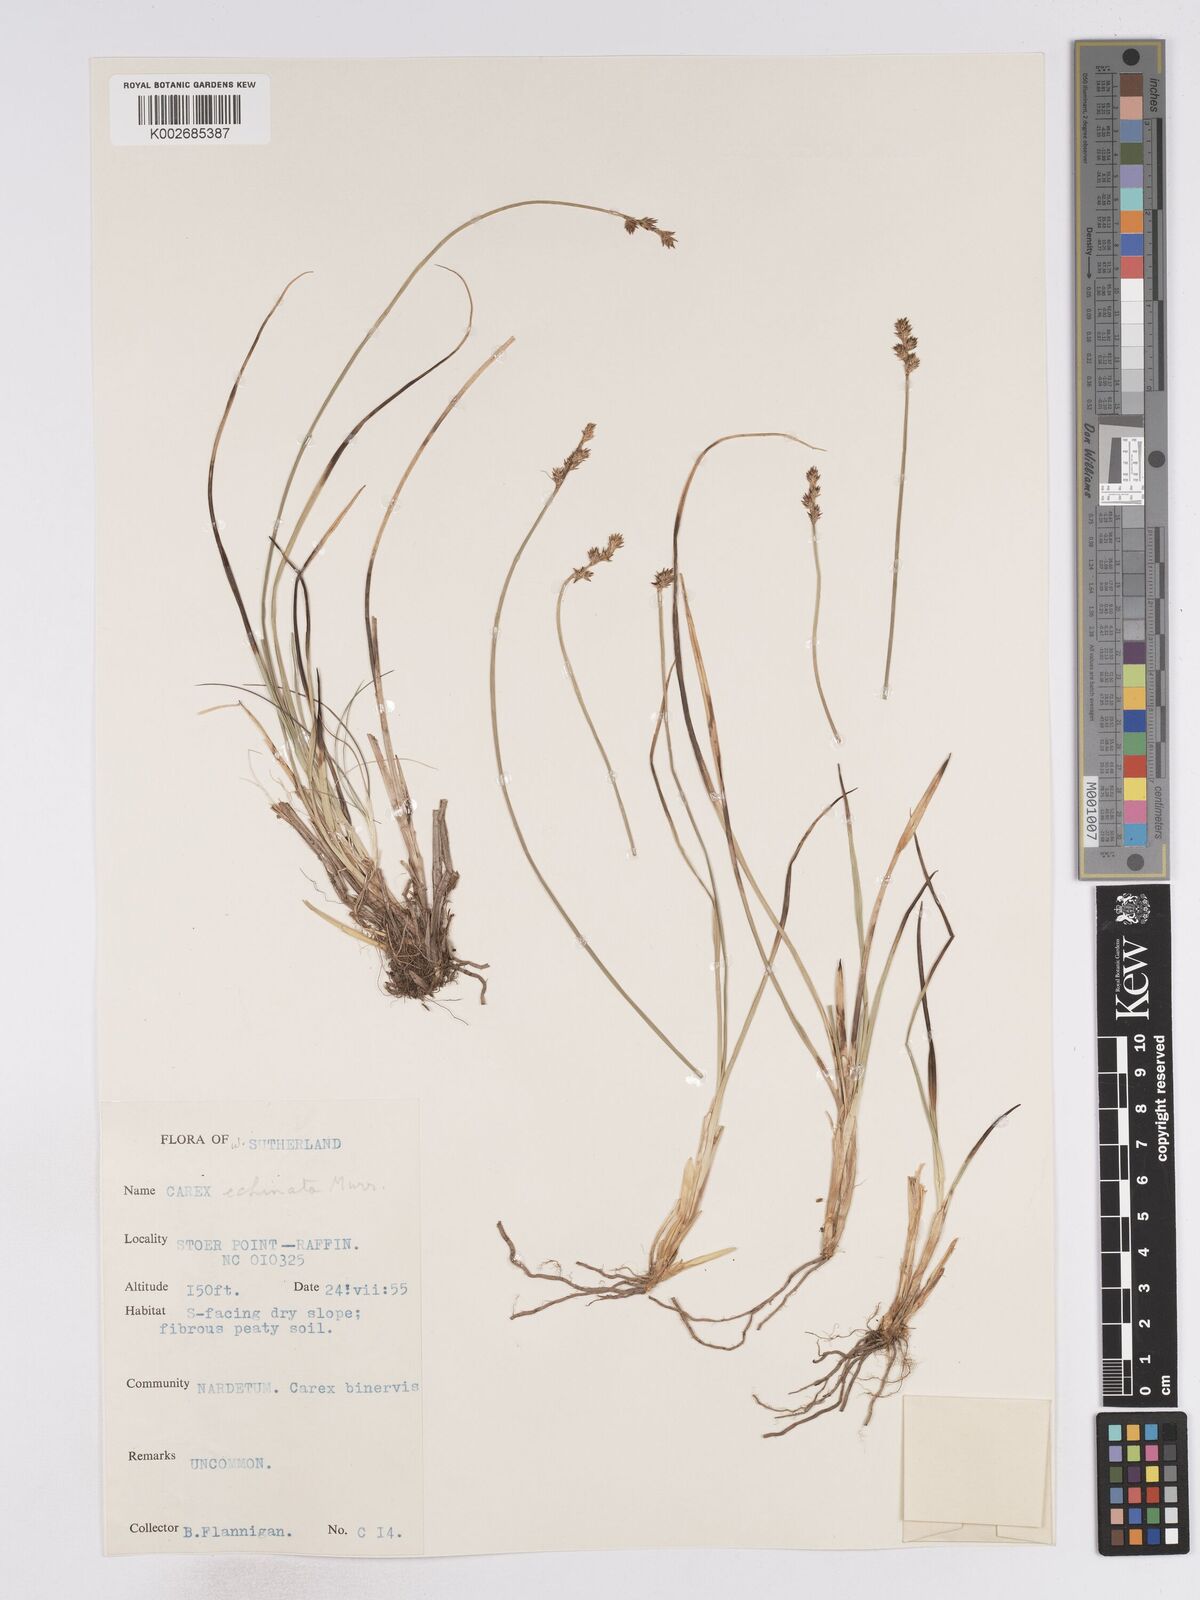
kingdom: Plantae
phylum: Tracheophyta
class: Liliopsida
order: Poales
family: Cyperaceae
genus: Carex
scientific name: Carex
